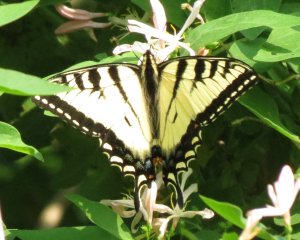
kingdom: Animalia
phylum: Arthropoda
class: Insecta
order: Lepidoptera
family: Papilionidae
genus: Pterourus
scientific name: Pterourus canadensis
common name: Canadian Tiger Swallowtail
